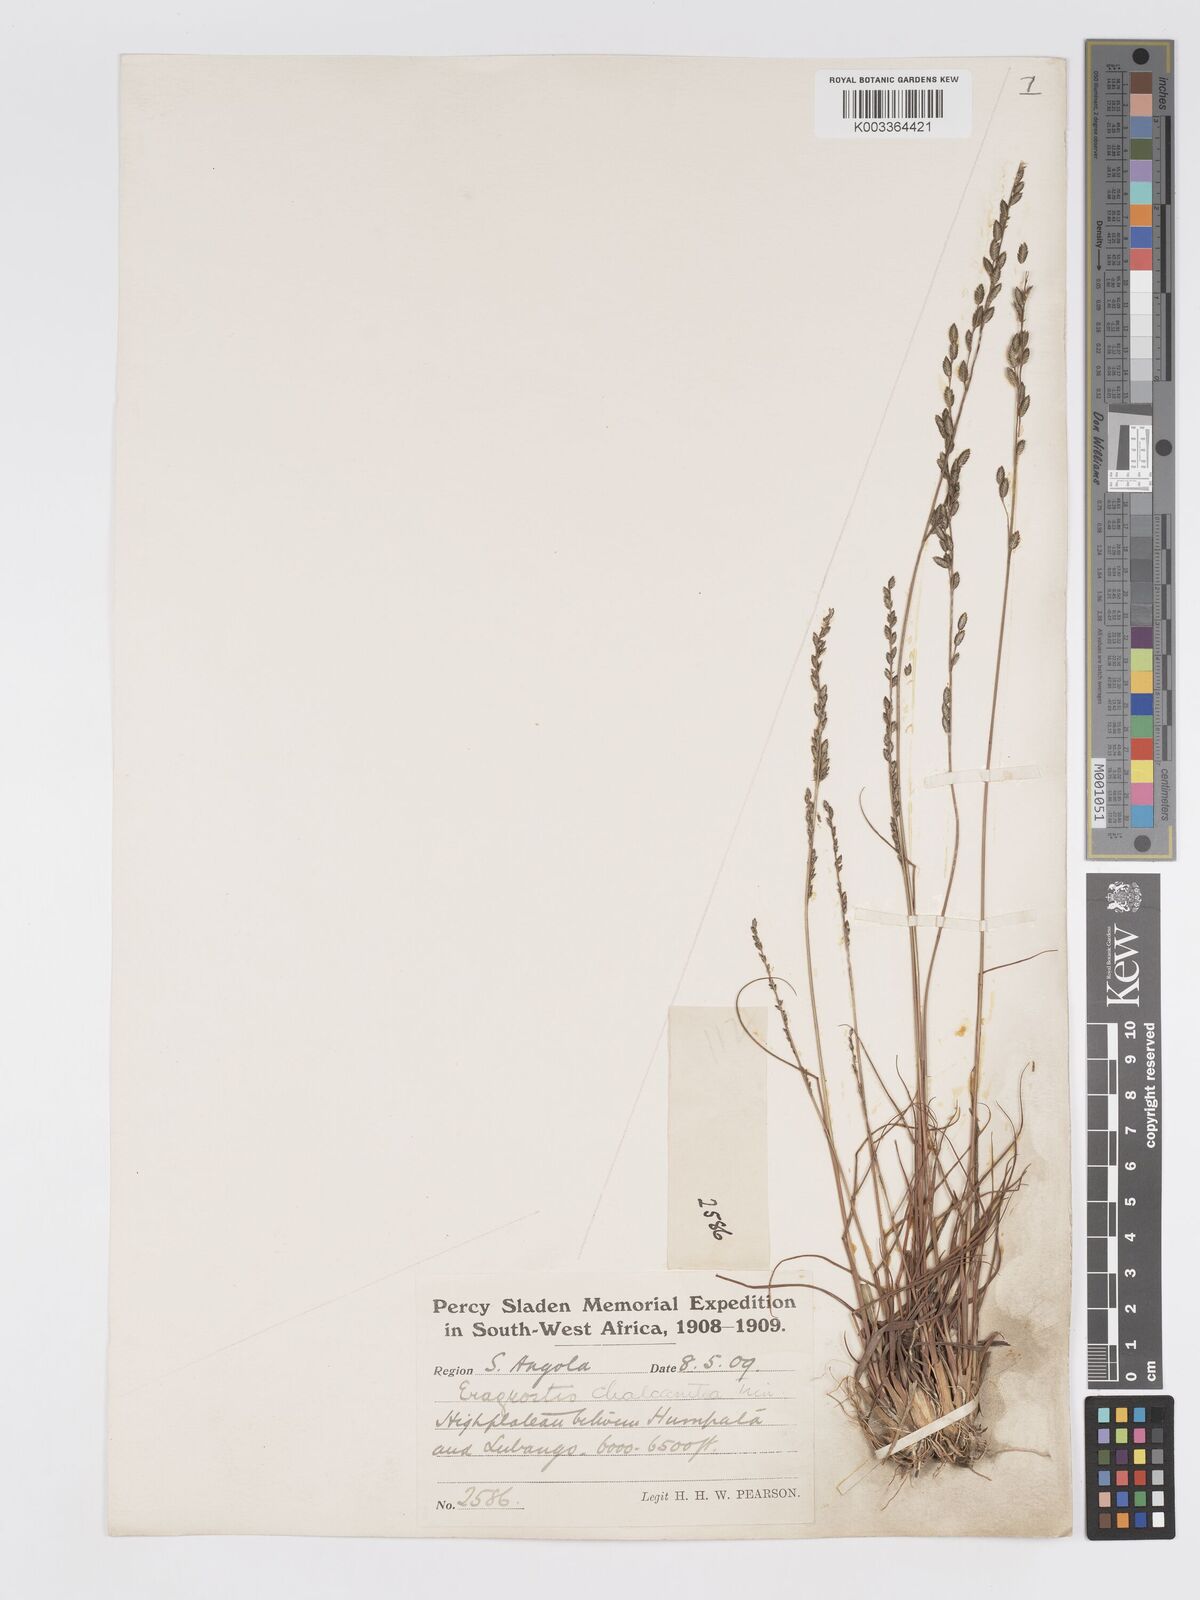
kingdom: Plantae
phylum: Tracheophyta
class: Liliopsida
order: Poales
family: Poaceae
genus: Eragrostis
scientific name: Eragrostis racemosa
